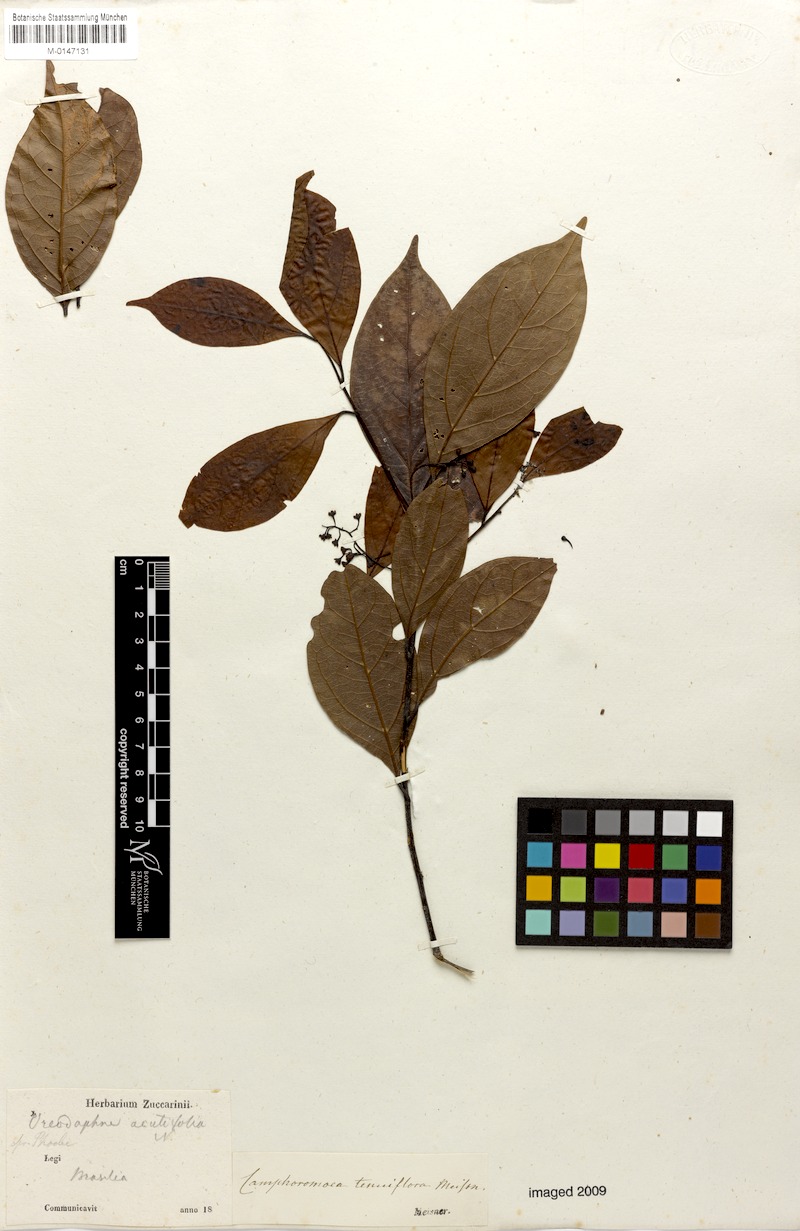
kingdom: Plantae
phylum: Tracheophyta
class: Magnoliopsida
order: Laurales
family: Lauraceae
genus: Ocotea
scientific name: Ocotea tenuiflora
